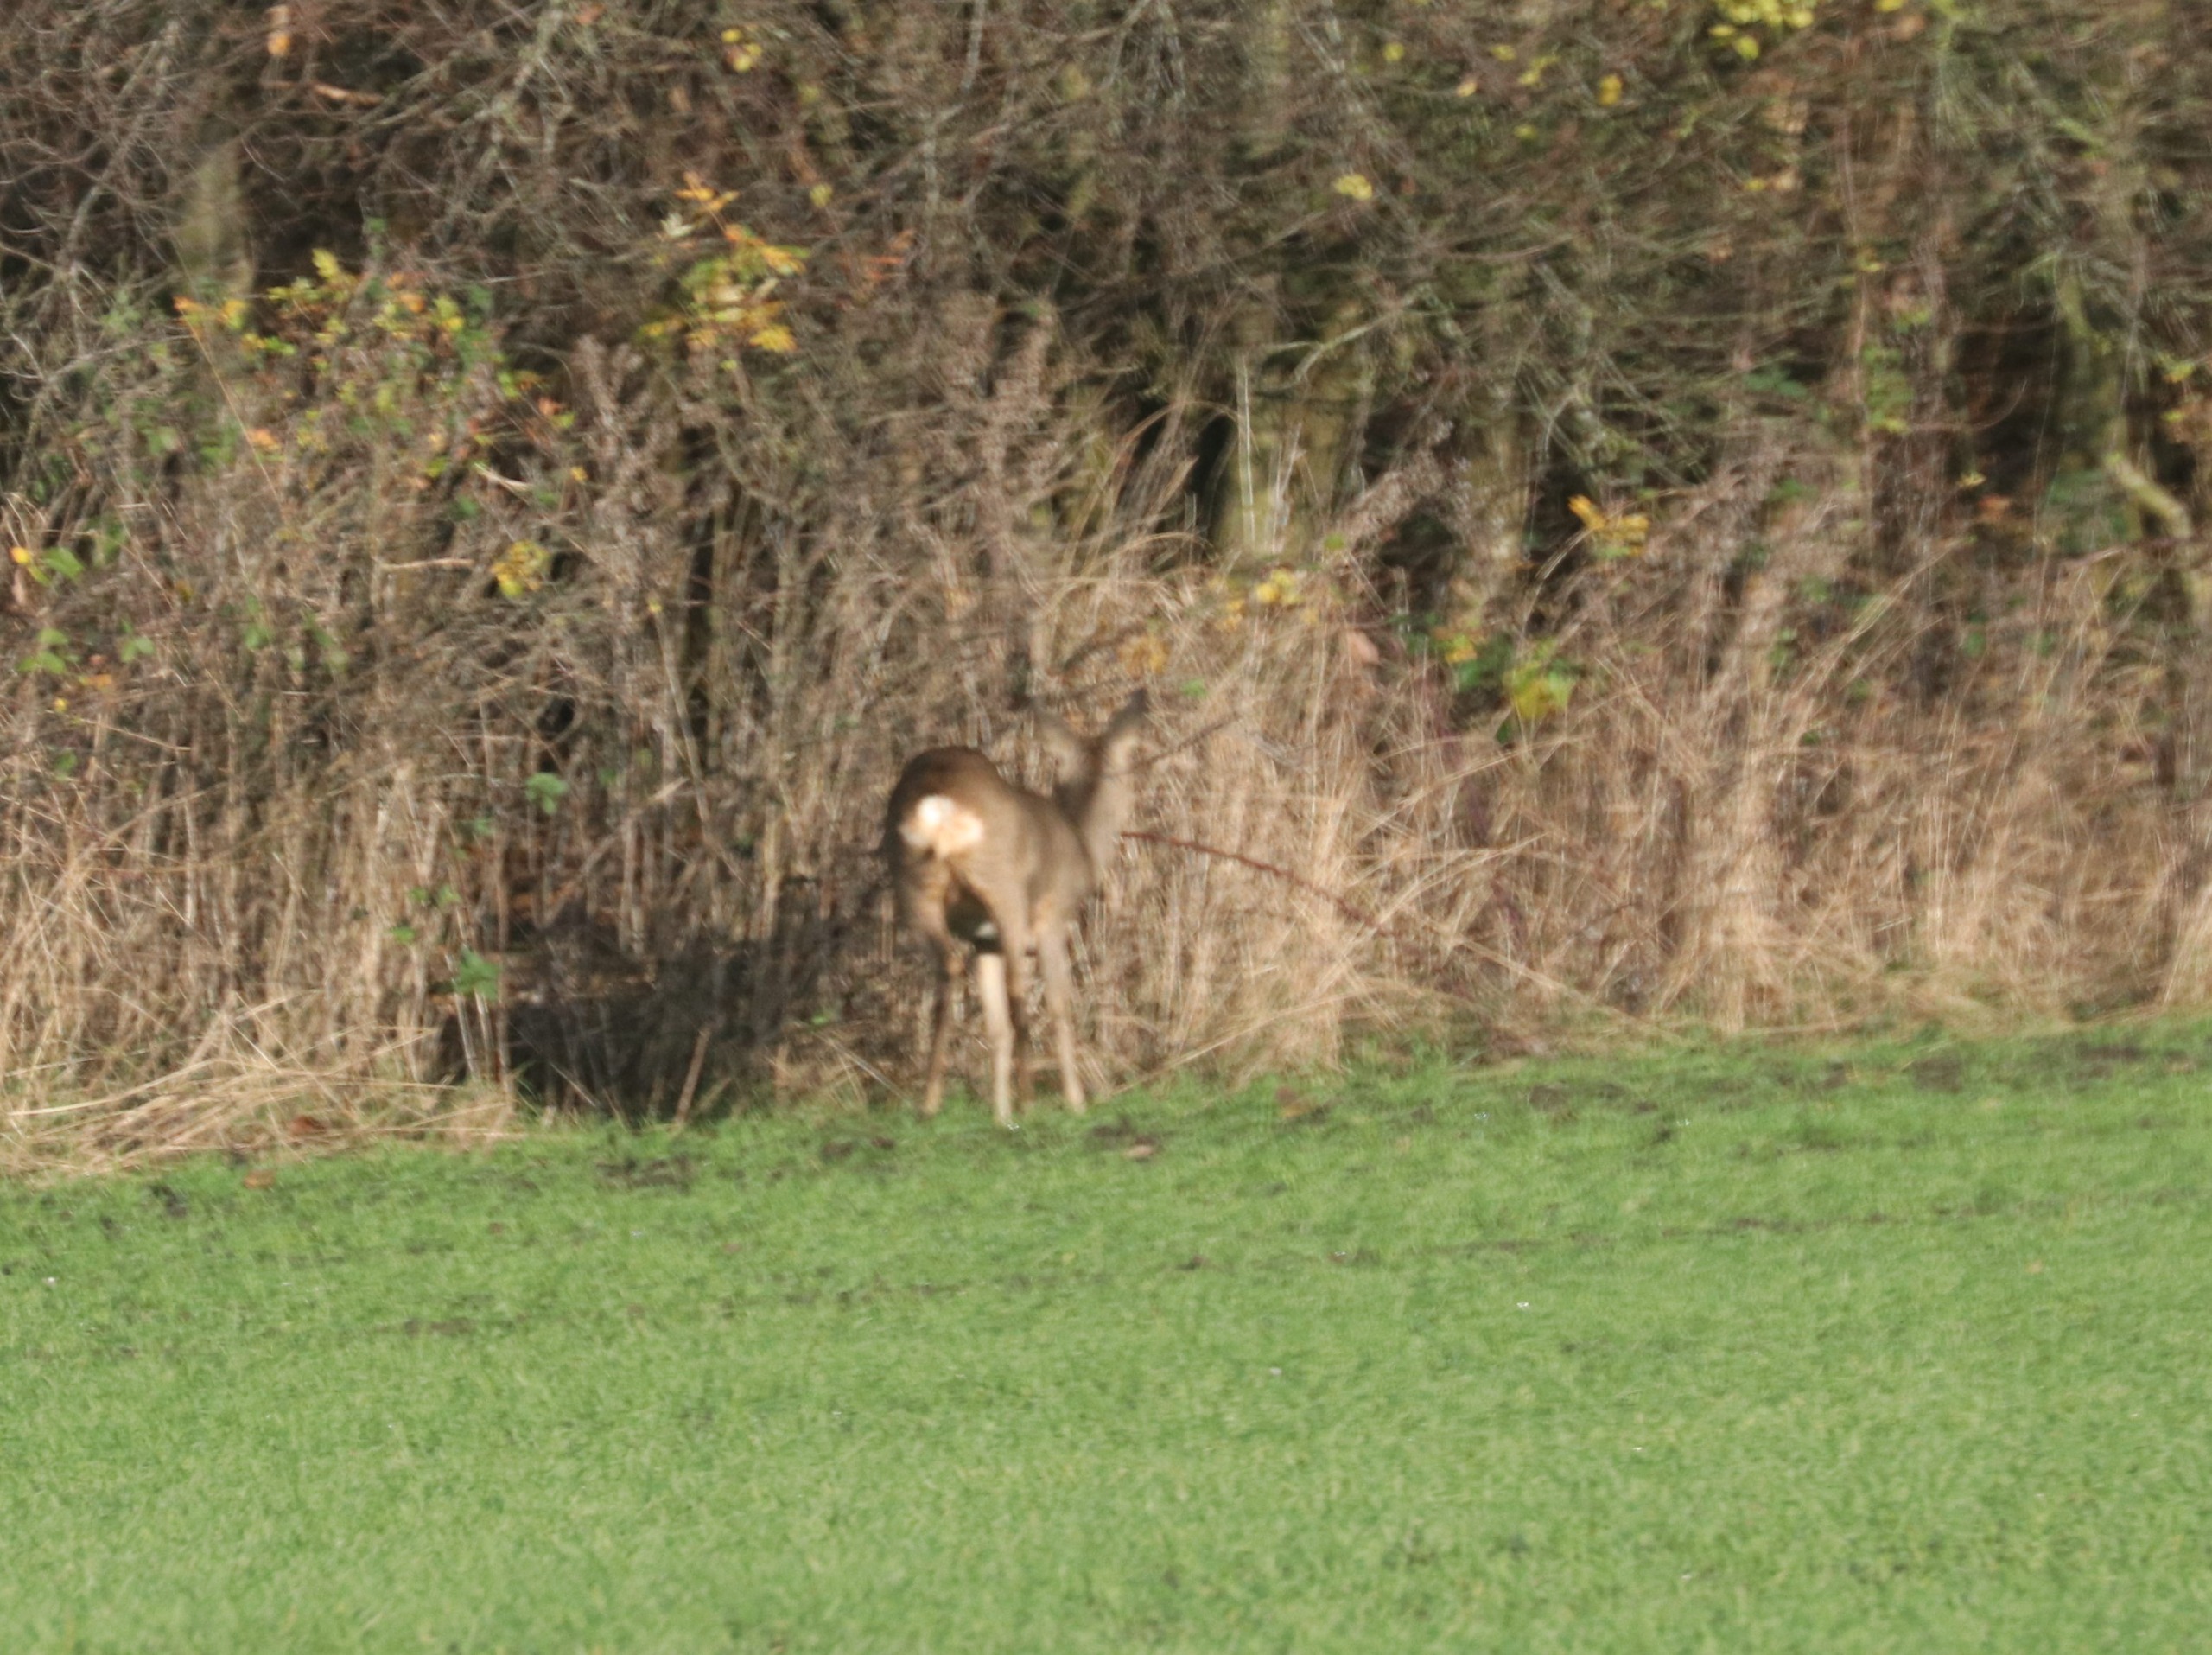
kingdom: Animalia
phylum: Chordata
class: Mammalia
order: Artiodactyla
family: Cervidae
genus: Capreolus
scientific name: Capreolus capreolus
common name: Rådyr
